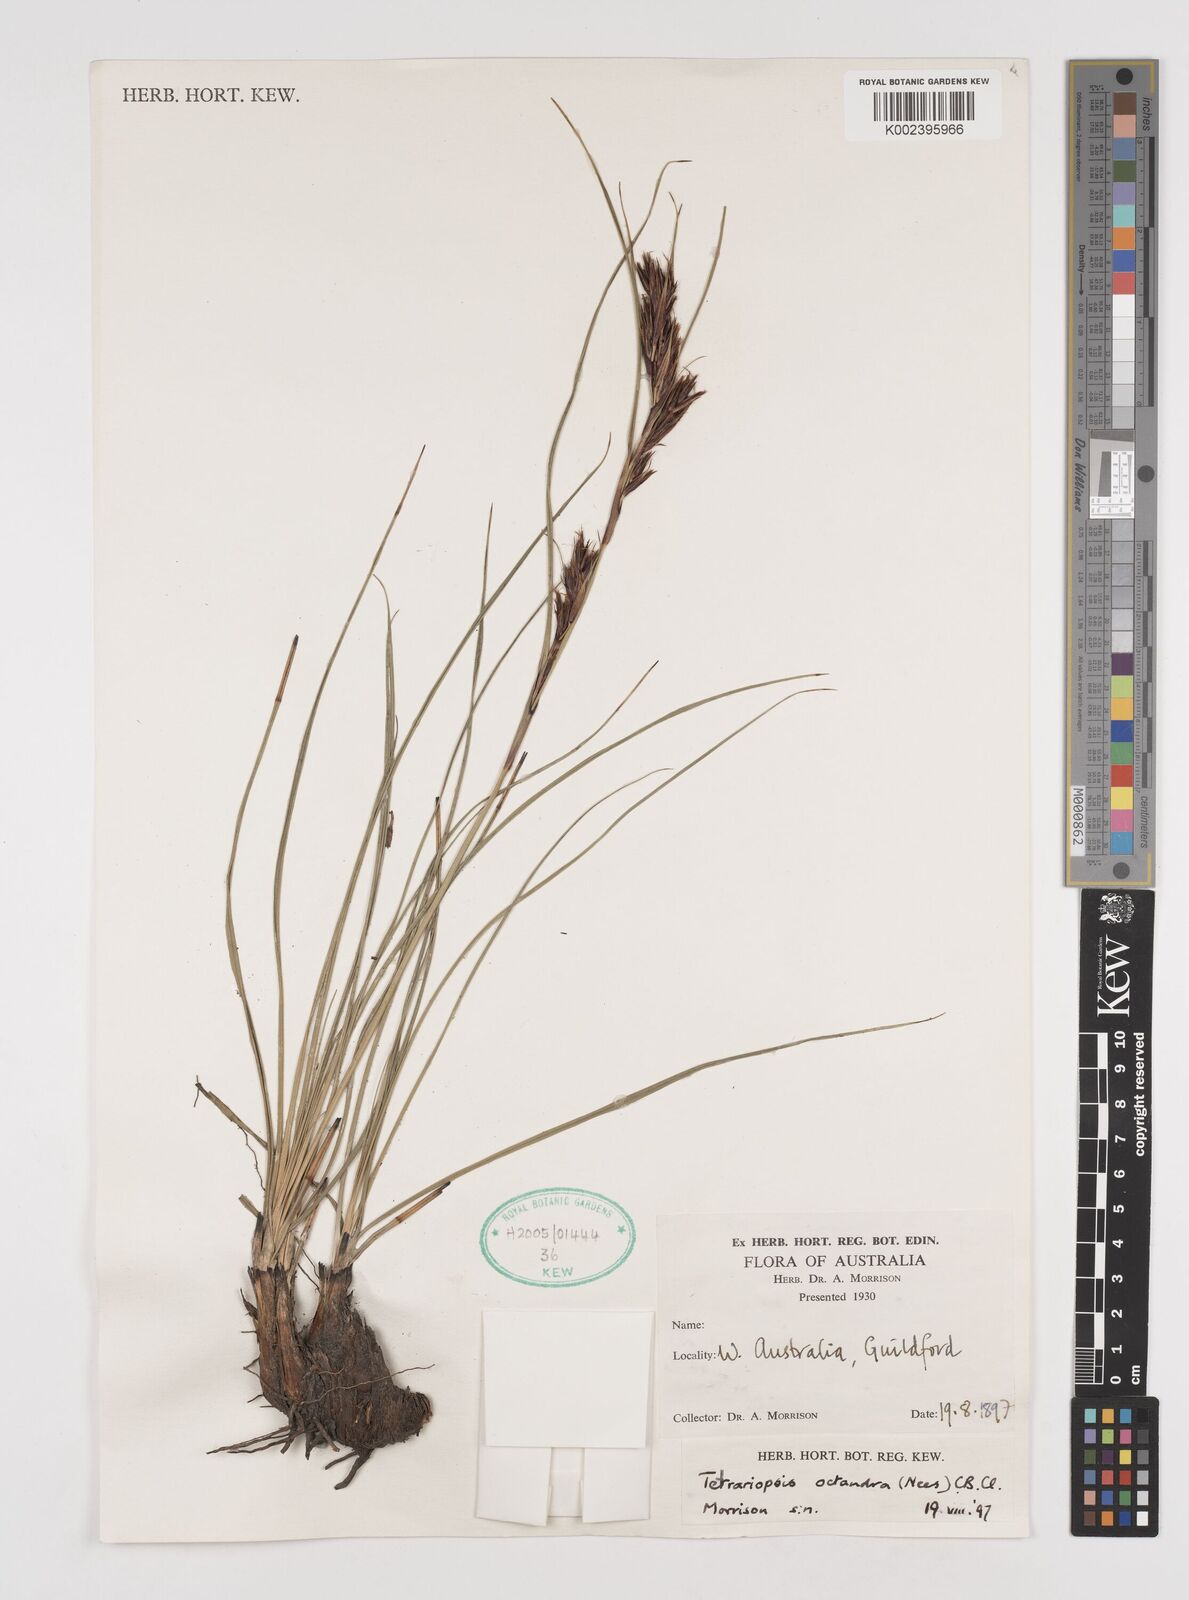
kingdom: Plantae
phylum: Tracheophyta
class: Liliopsida
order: Poales
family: Cyperaceae
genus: Tetraria
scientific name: Tetraria octandra
